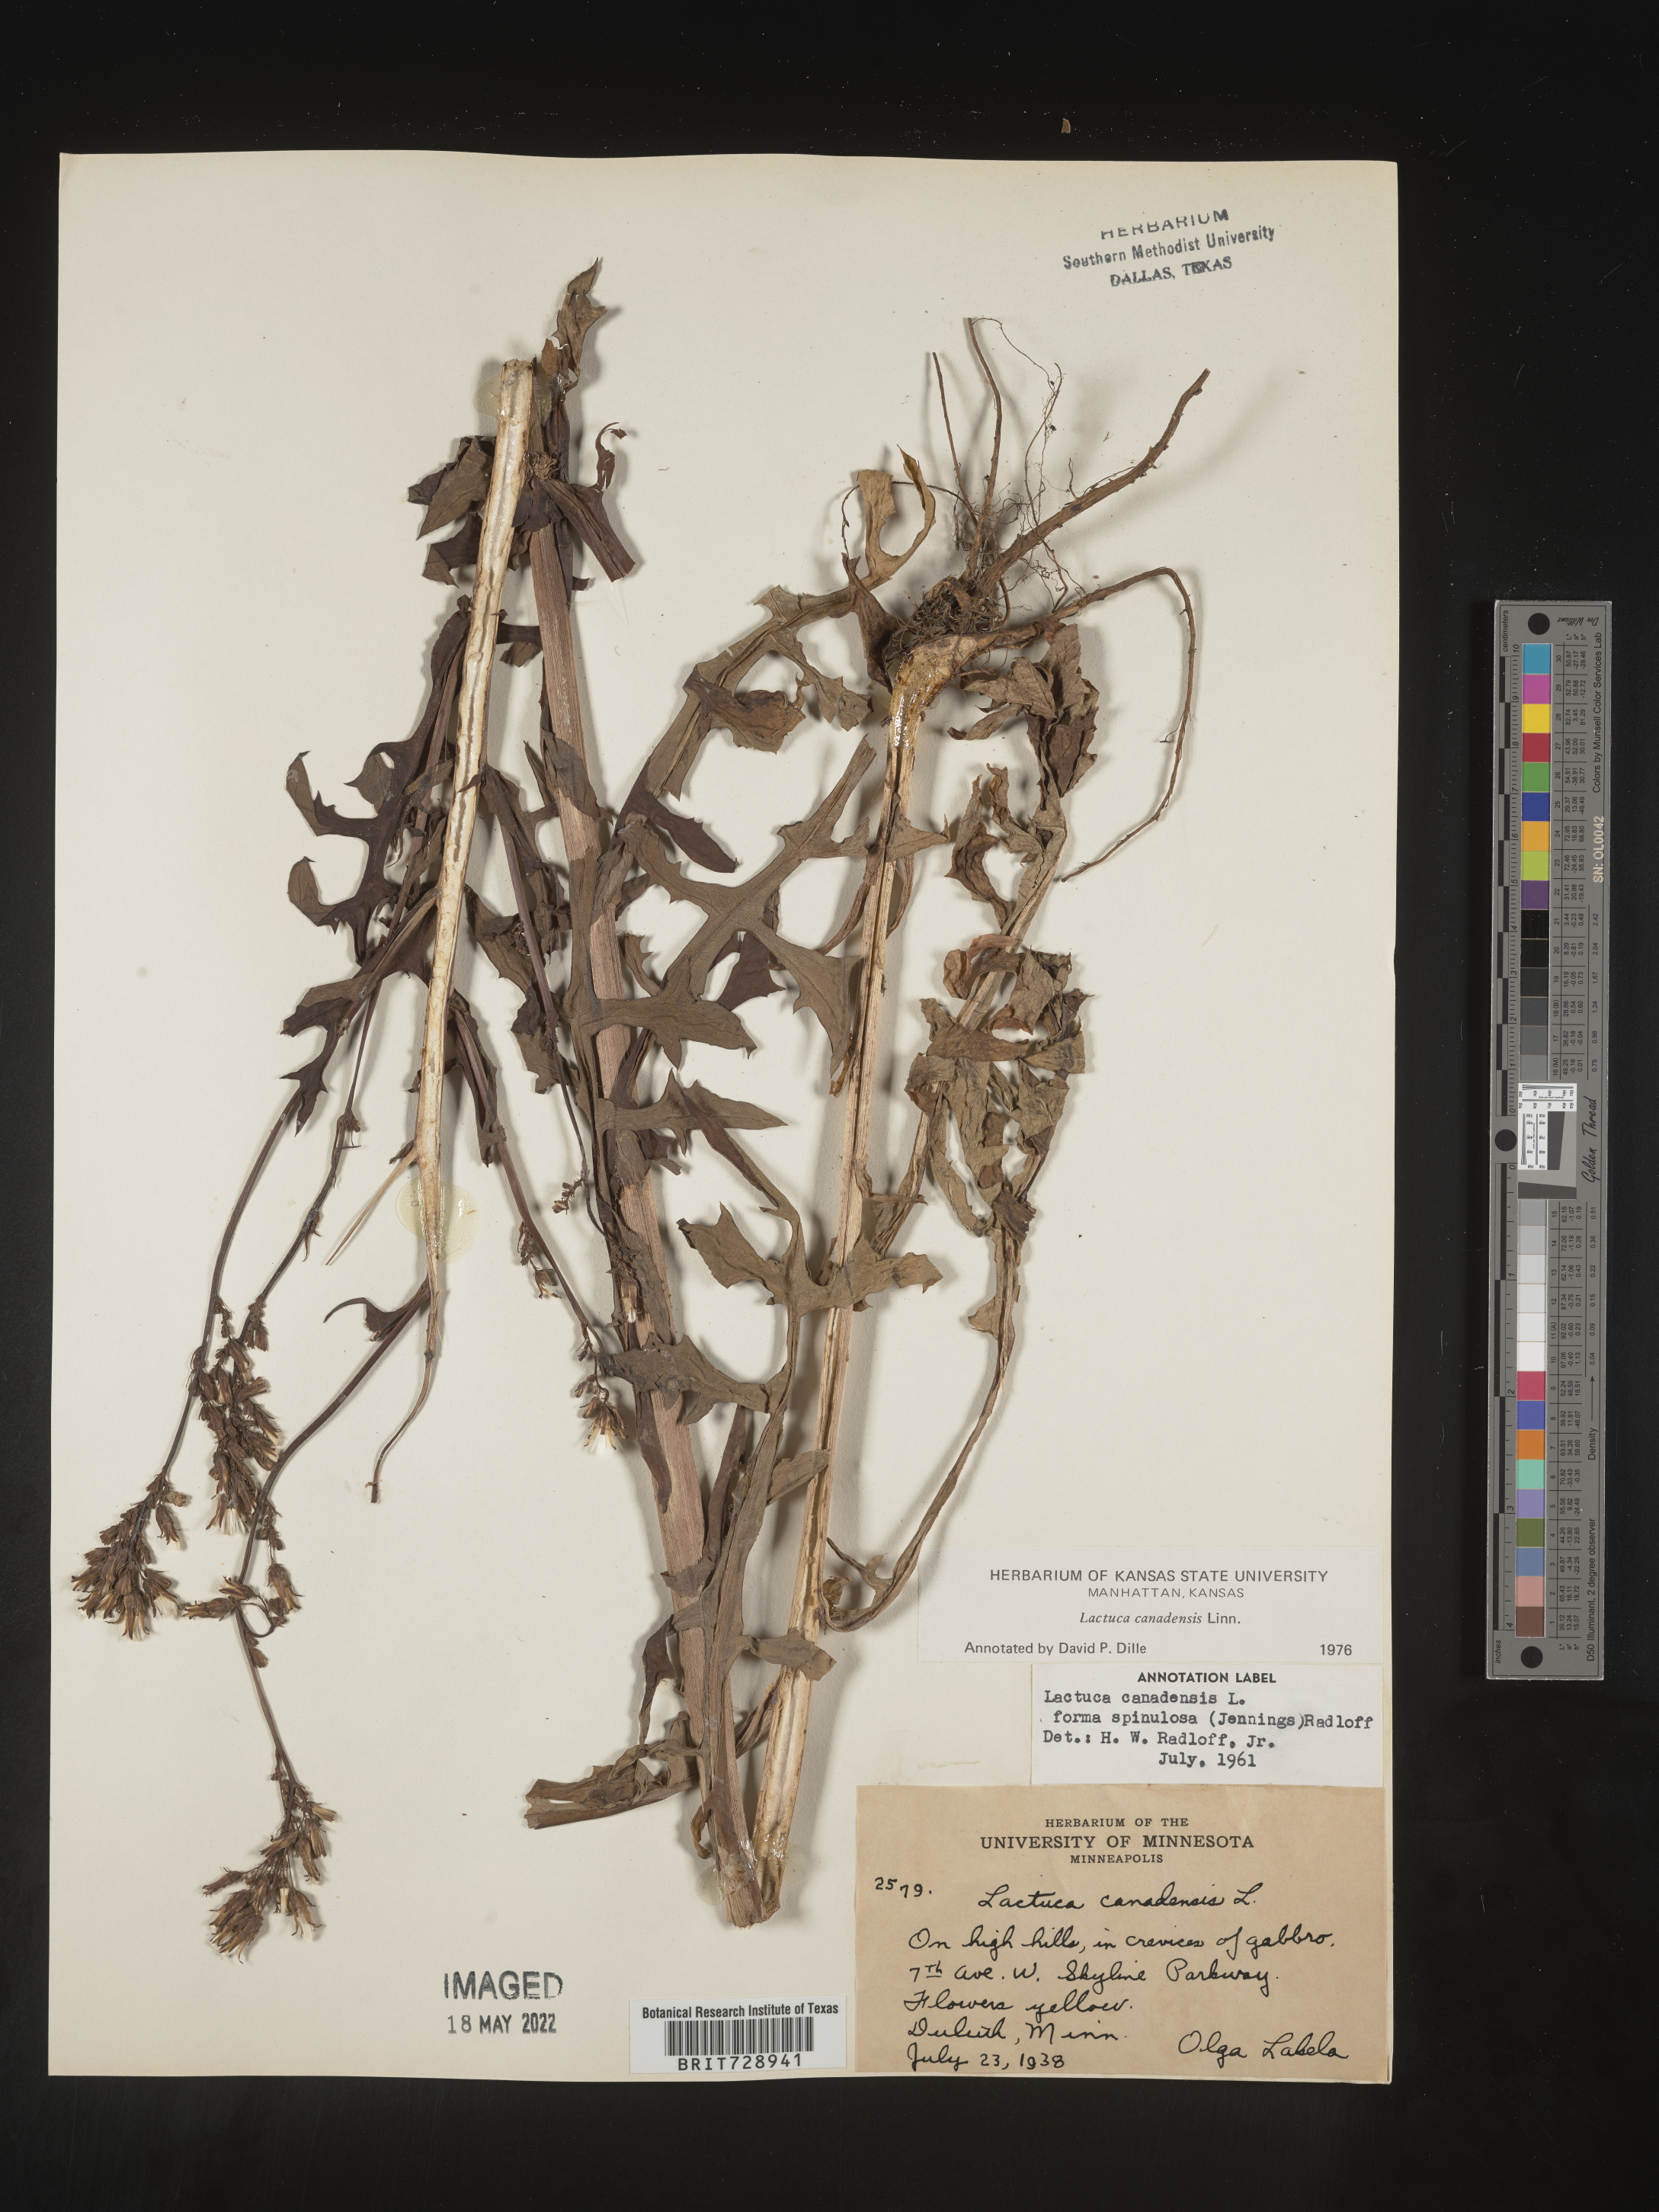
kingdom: Plantae
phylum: Tracheophyta
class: Magnoliopsida
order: Asterales
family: Asteraceae
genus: Lactuca
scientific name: Lactuca canadensis
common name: Canada lettuce
